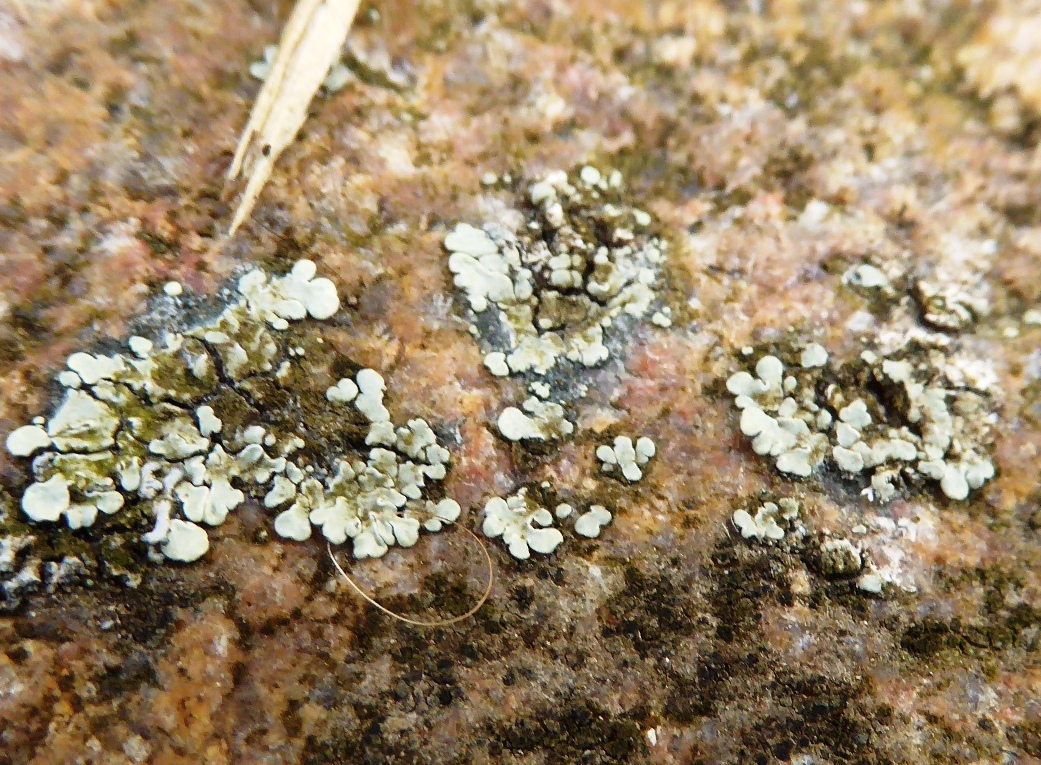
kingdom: Fungi
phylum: Ascomycota
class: Lecanoromycetes
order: Lecanorales
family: Lecanoraceae
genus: Protoparmeliopsis
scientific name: Protoparmeliopsis muralis
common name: randfliget kantskivelav
